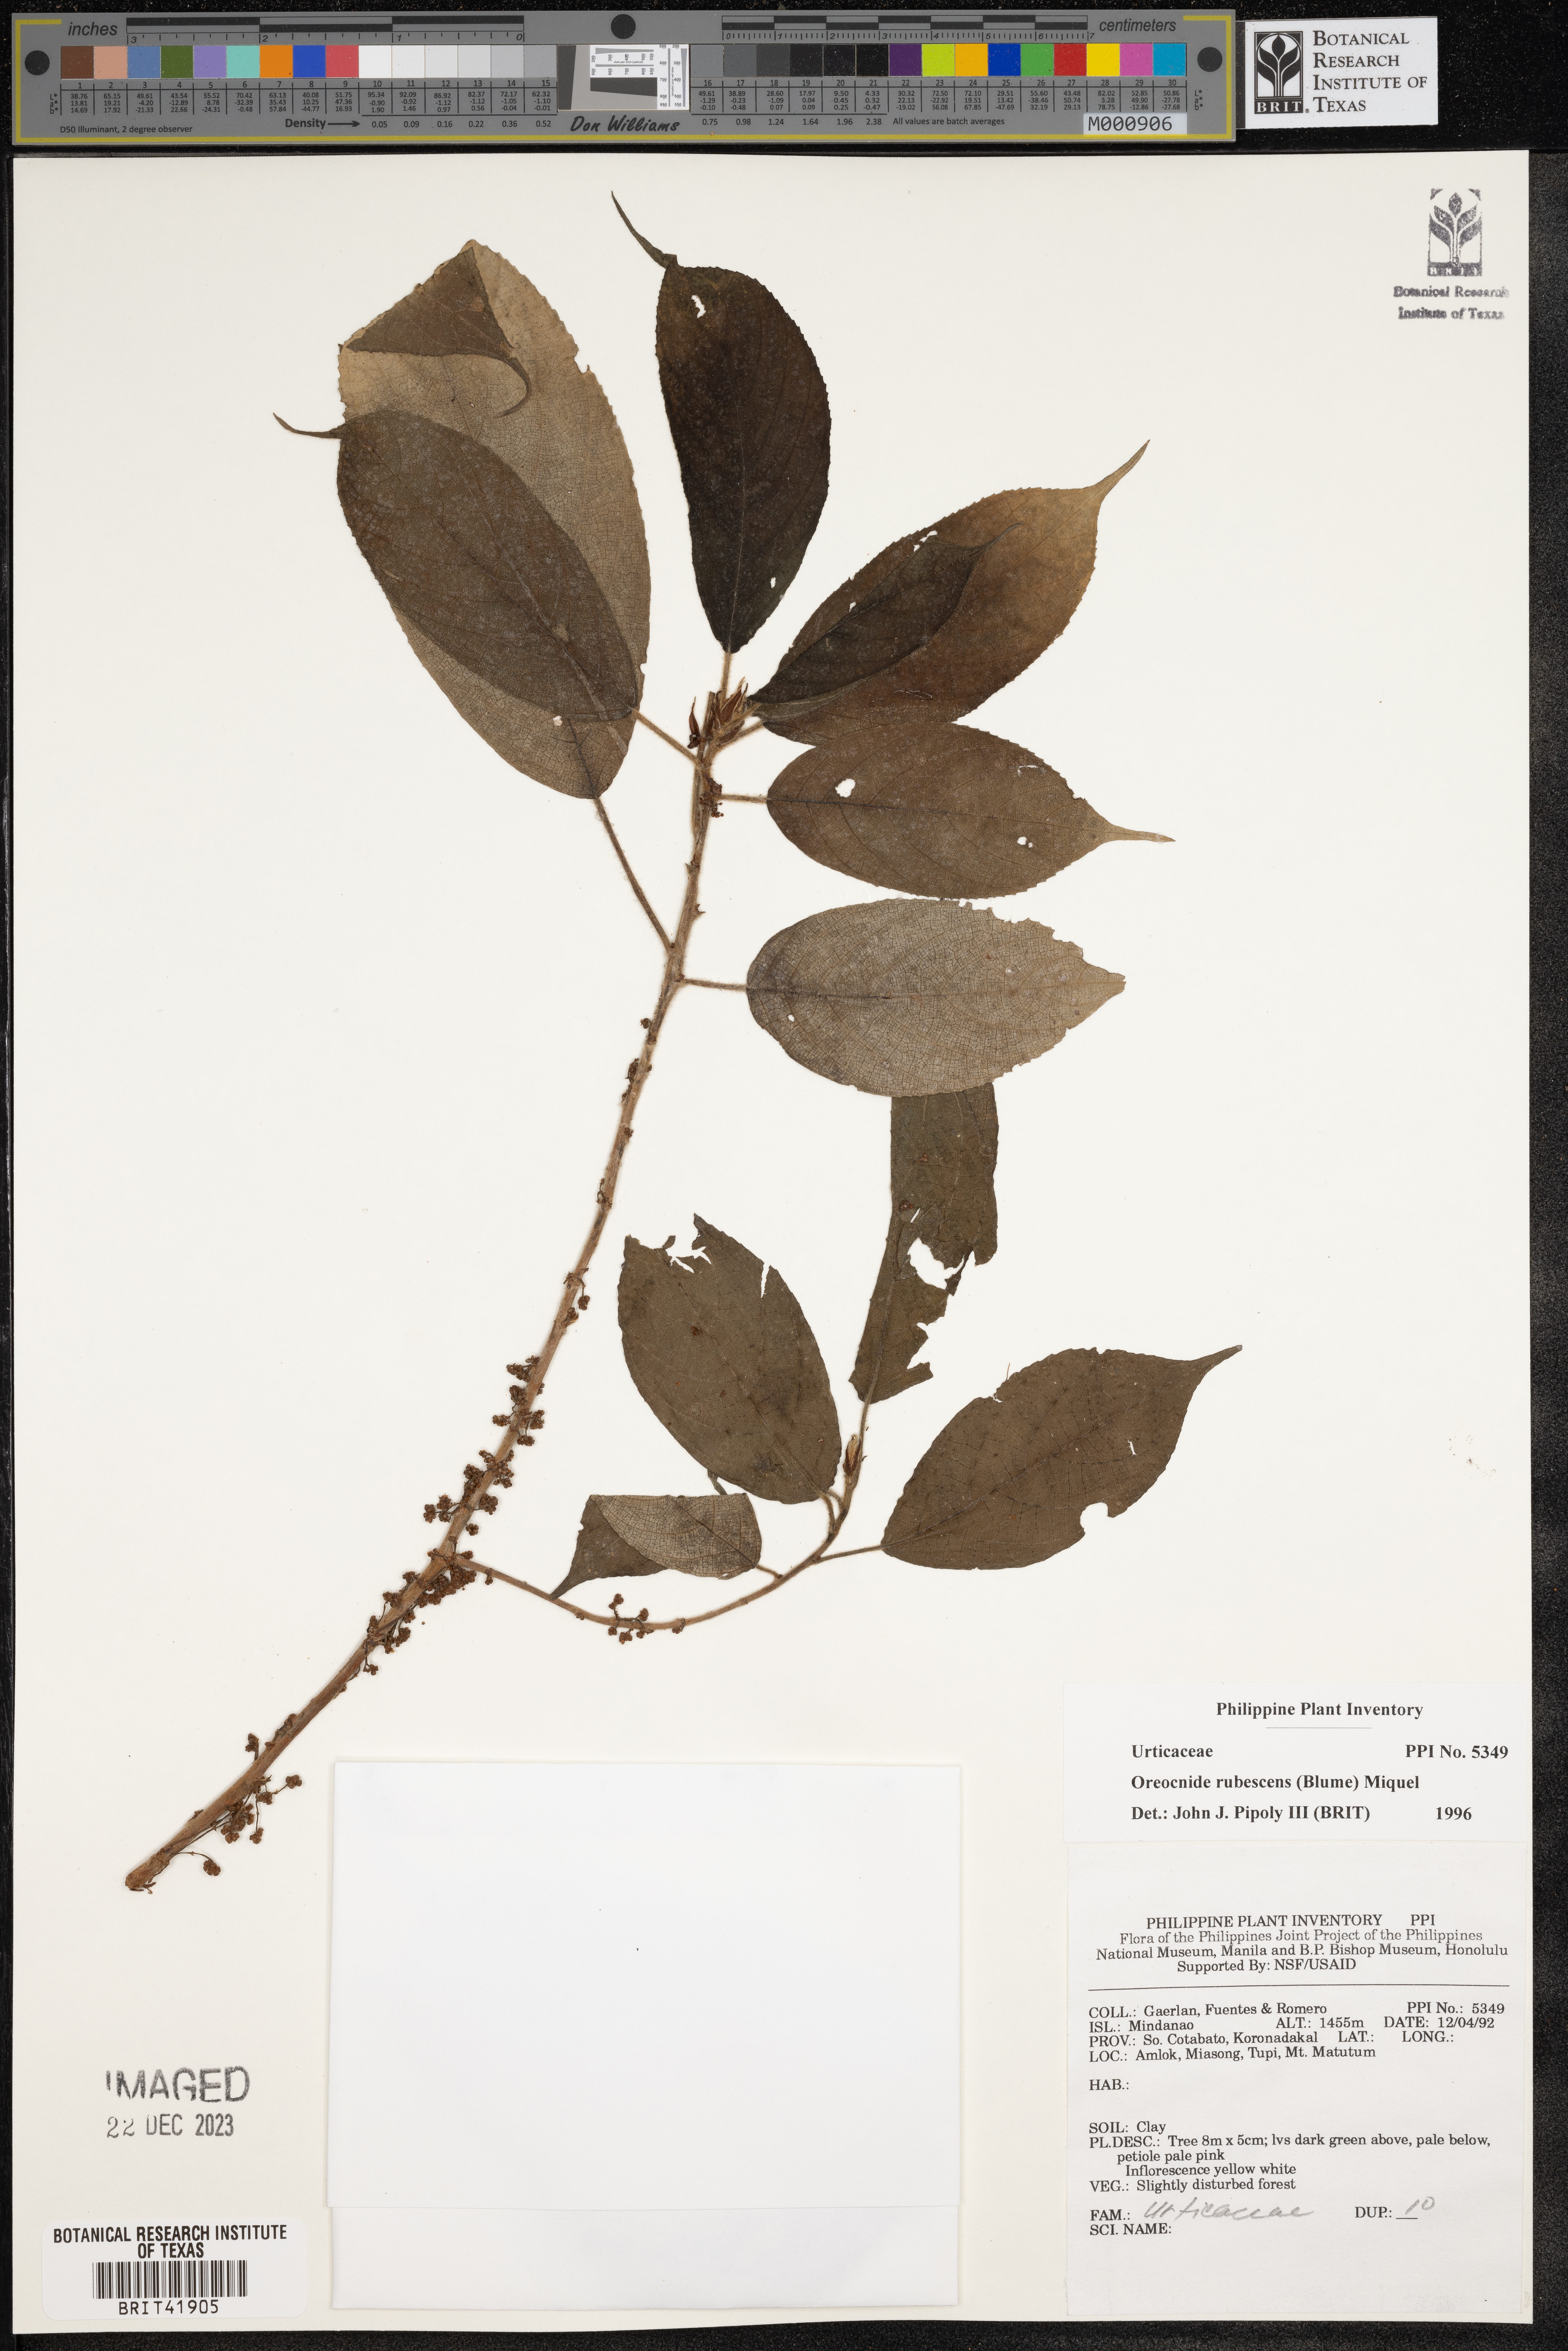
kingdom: Plantae
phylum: Tracheophyta
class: Magnoliopsida
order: Rosales
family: Urticaceae
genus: Oreocnide
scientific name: Oreocnide rubescens
